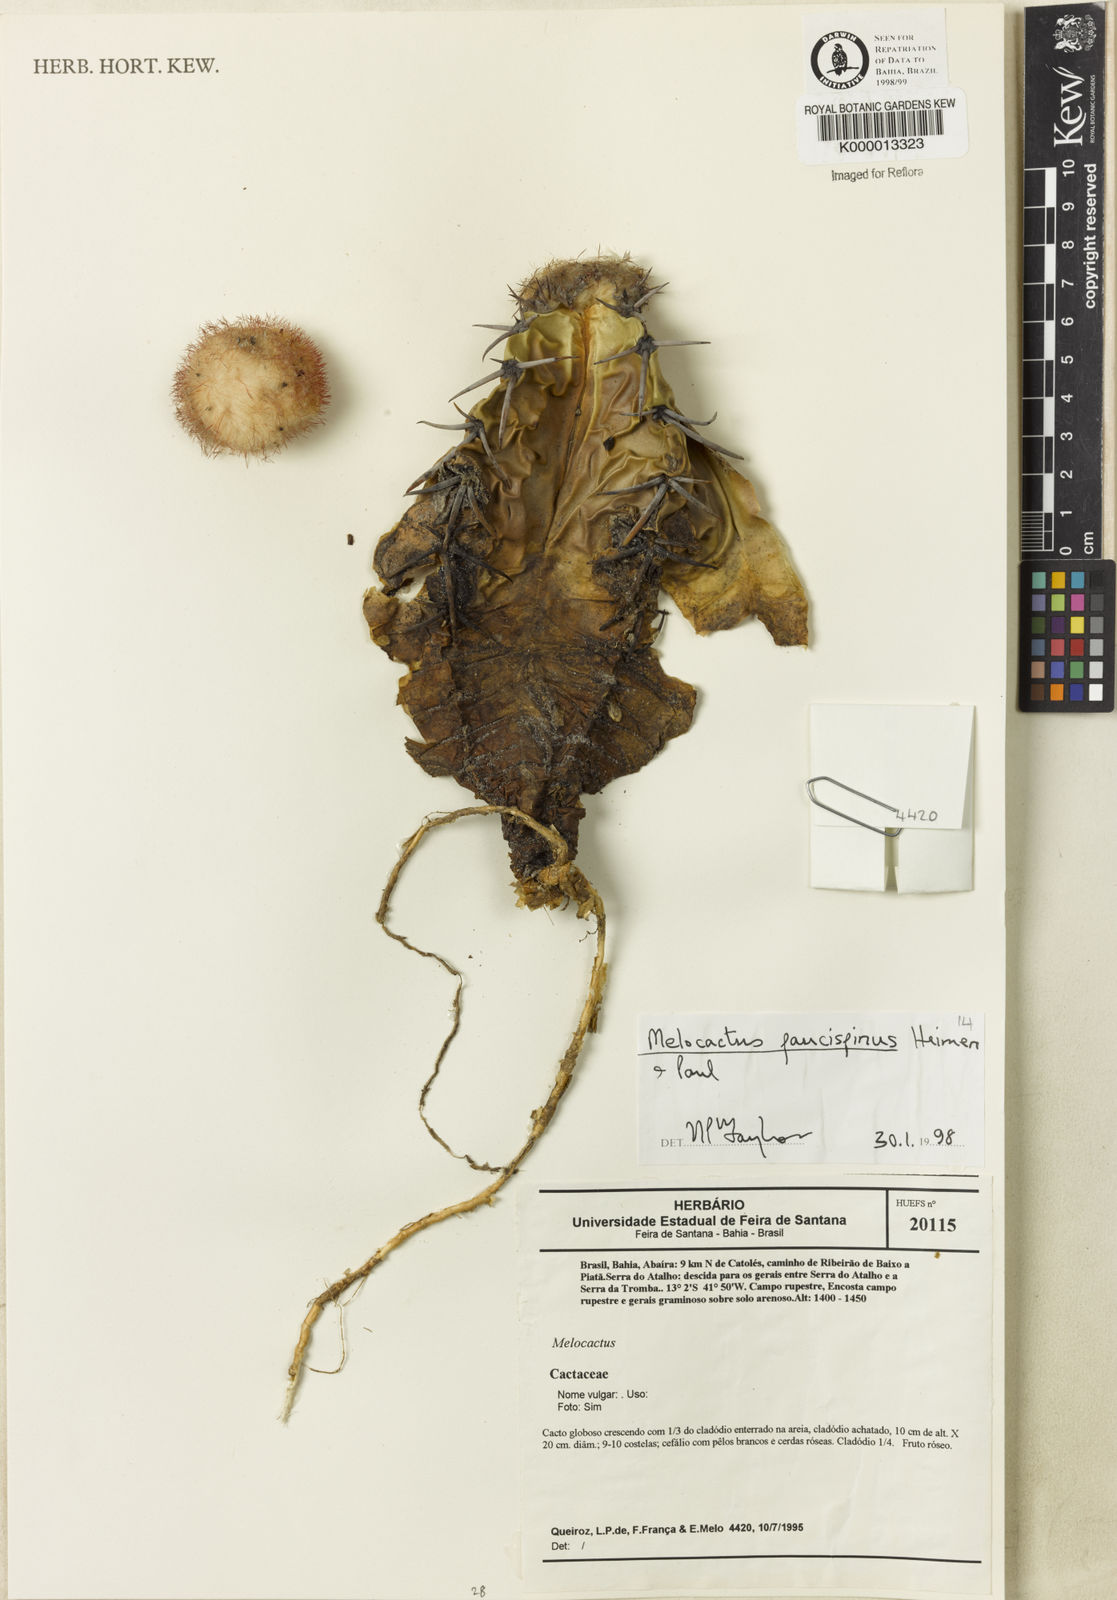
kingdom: Plantae
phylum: Tracheophyta
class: Magnoliopsida
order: Caryophyllales
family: Cactaceae
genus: Melocactus
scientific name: Melocactus paucispinus
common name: Few-spine turk's-cap cactus
